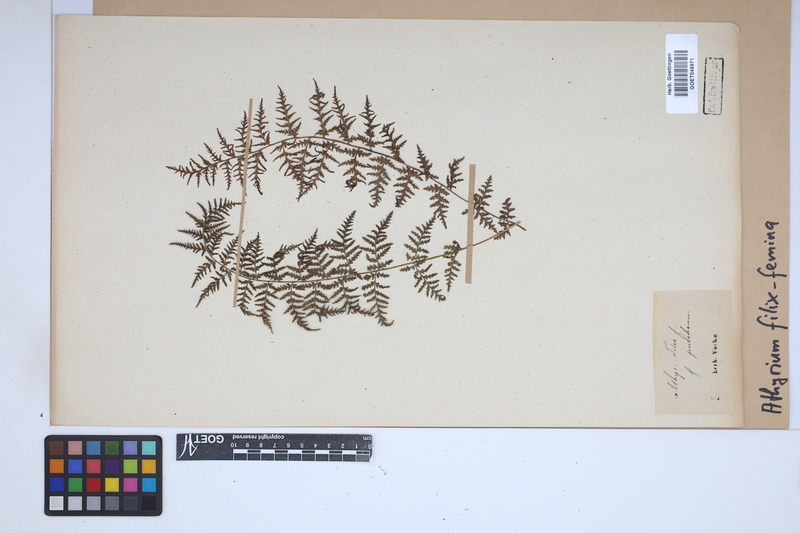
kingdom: Plantae
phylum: Tracheophyta
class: Polypodiopsida
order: Polypodiales
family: Athyriaceae
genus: Athyrium
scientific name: Athyrium filix-femina
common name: Lady fern
